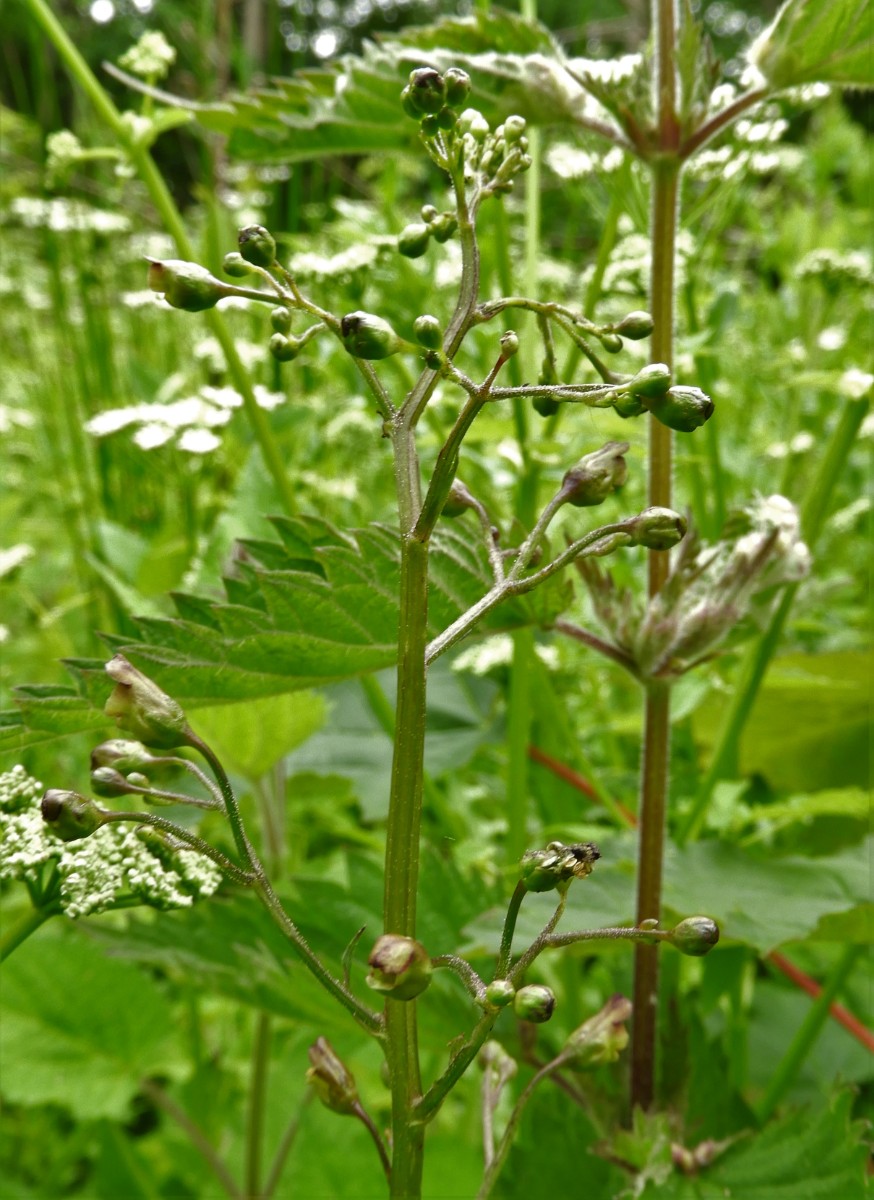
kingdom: Fungi
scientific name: Fungi
